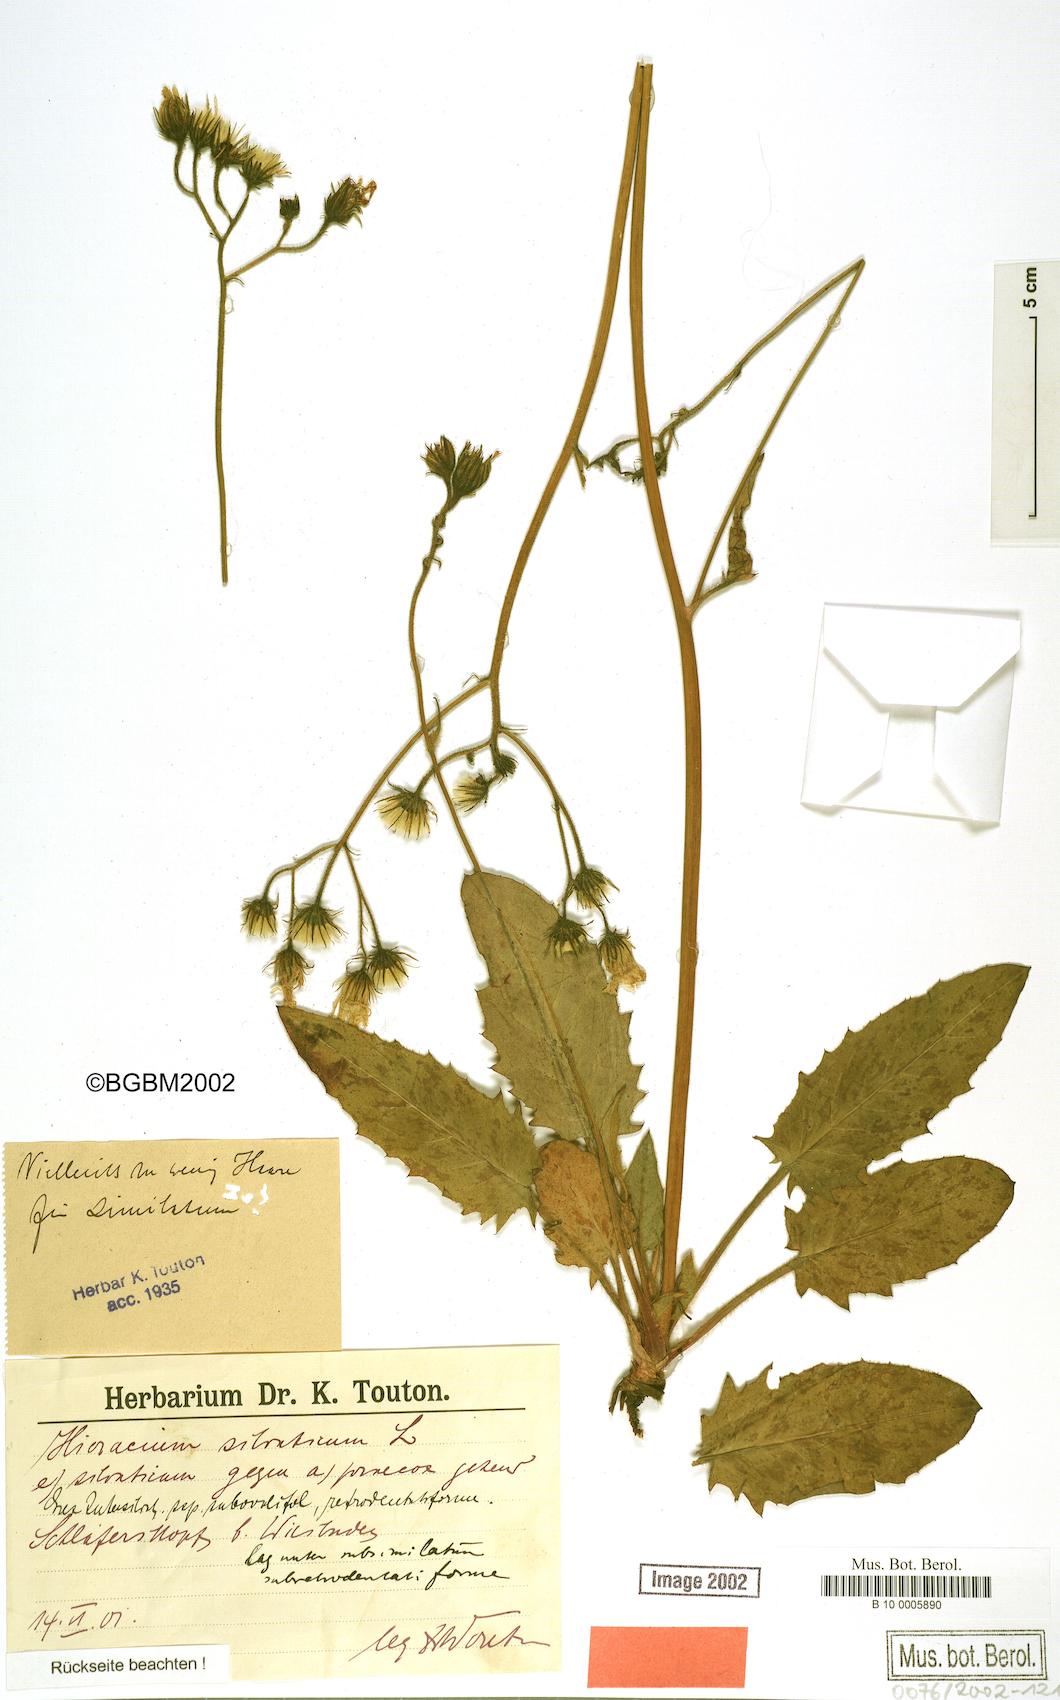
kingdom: Plantae
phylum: Tracheophyta
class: Magnoliopsida
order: Asterales
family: Asteraceae
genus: Hieracium
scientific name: Hieracium praecox
